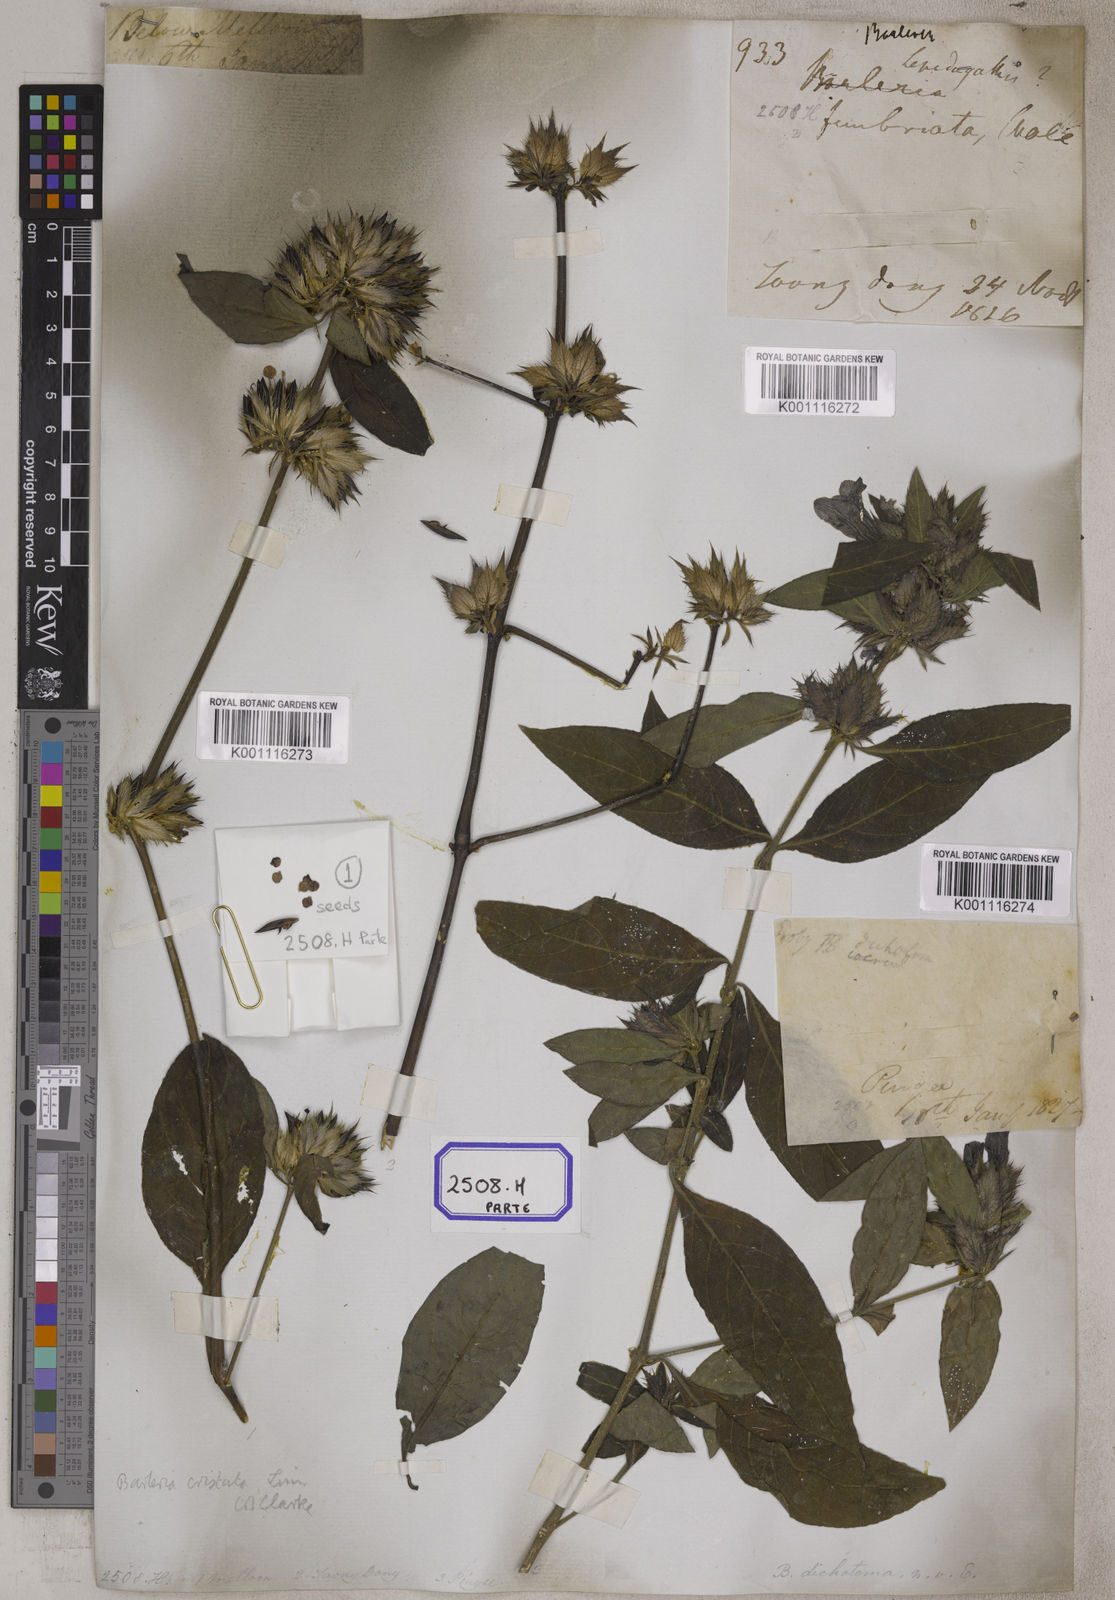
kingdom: Plantae
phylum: Tracheophyta
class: Magnoliopsida
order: Lamiales
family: Acanthaceae
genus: Barleria
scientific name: Barleria cristata
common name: Crested philippine violet
